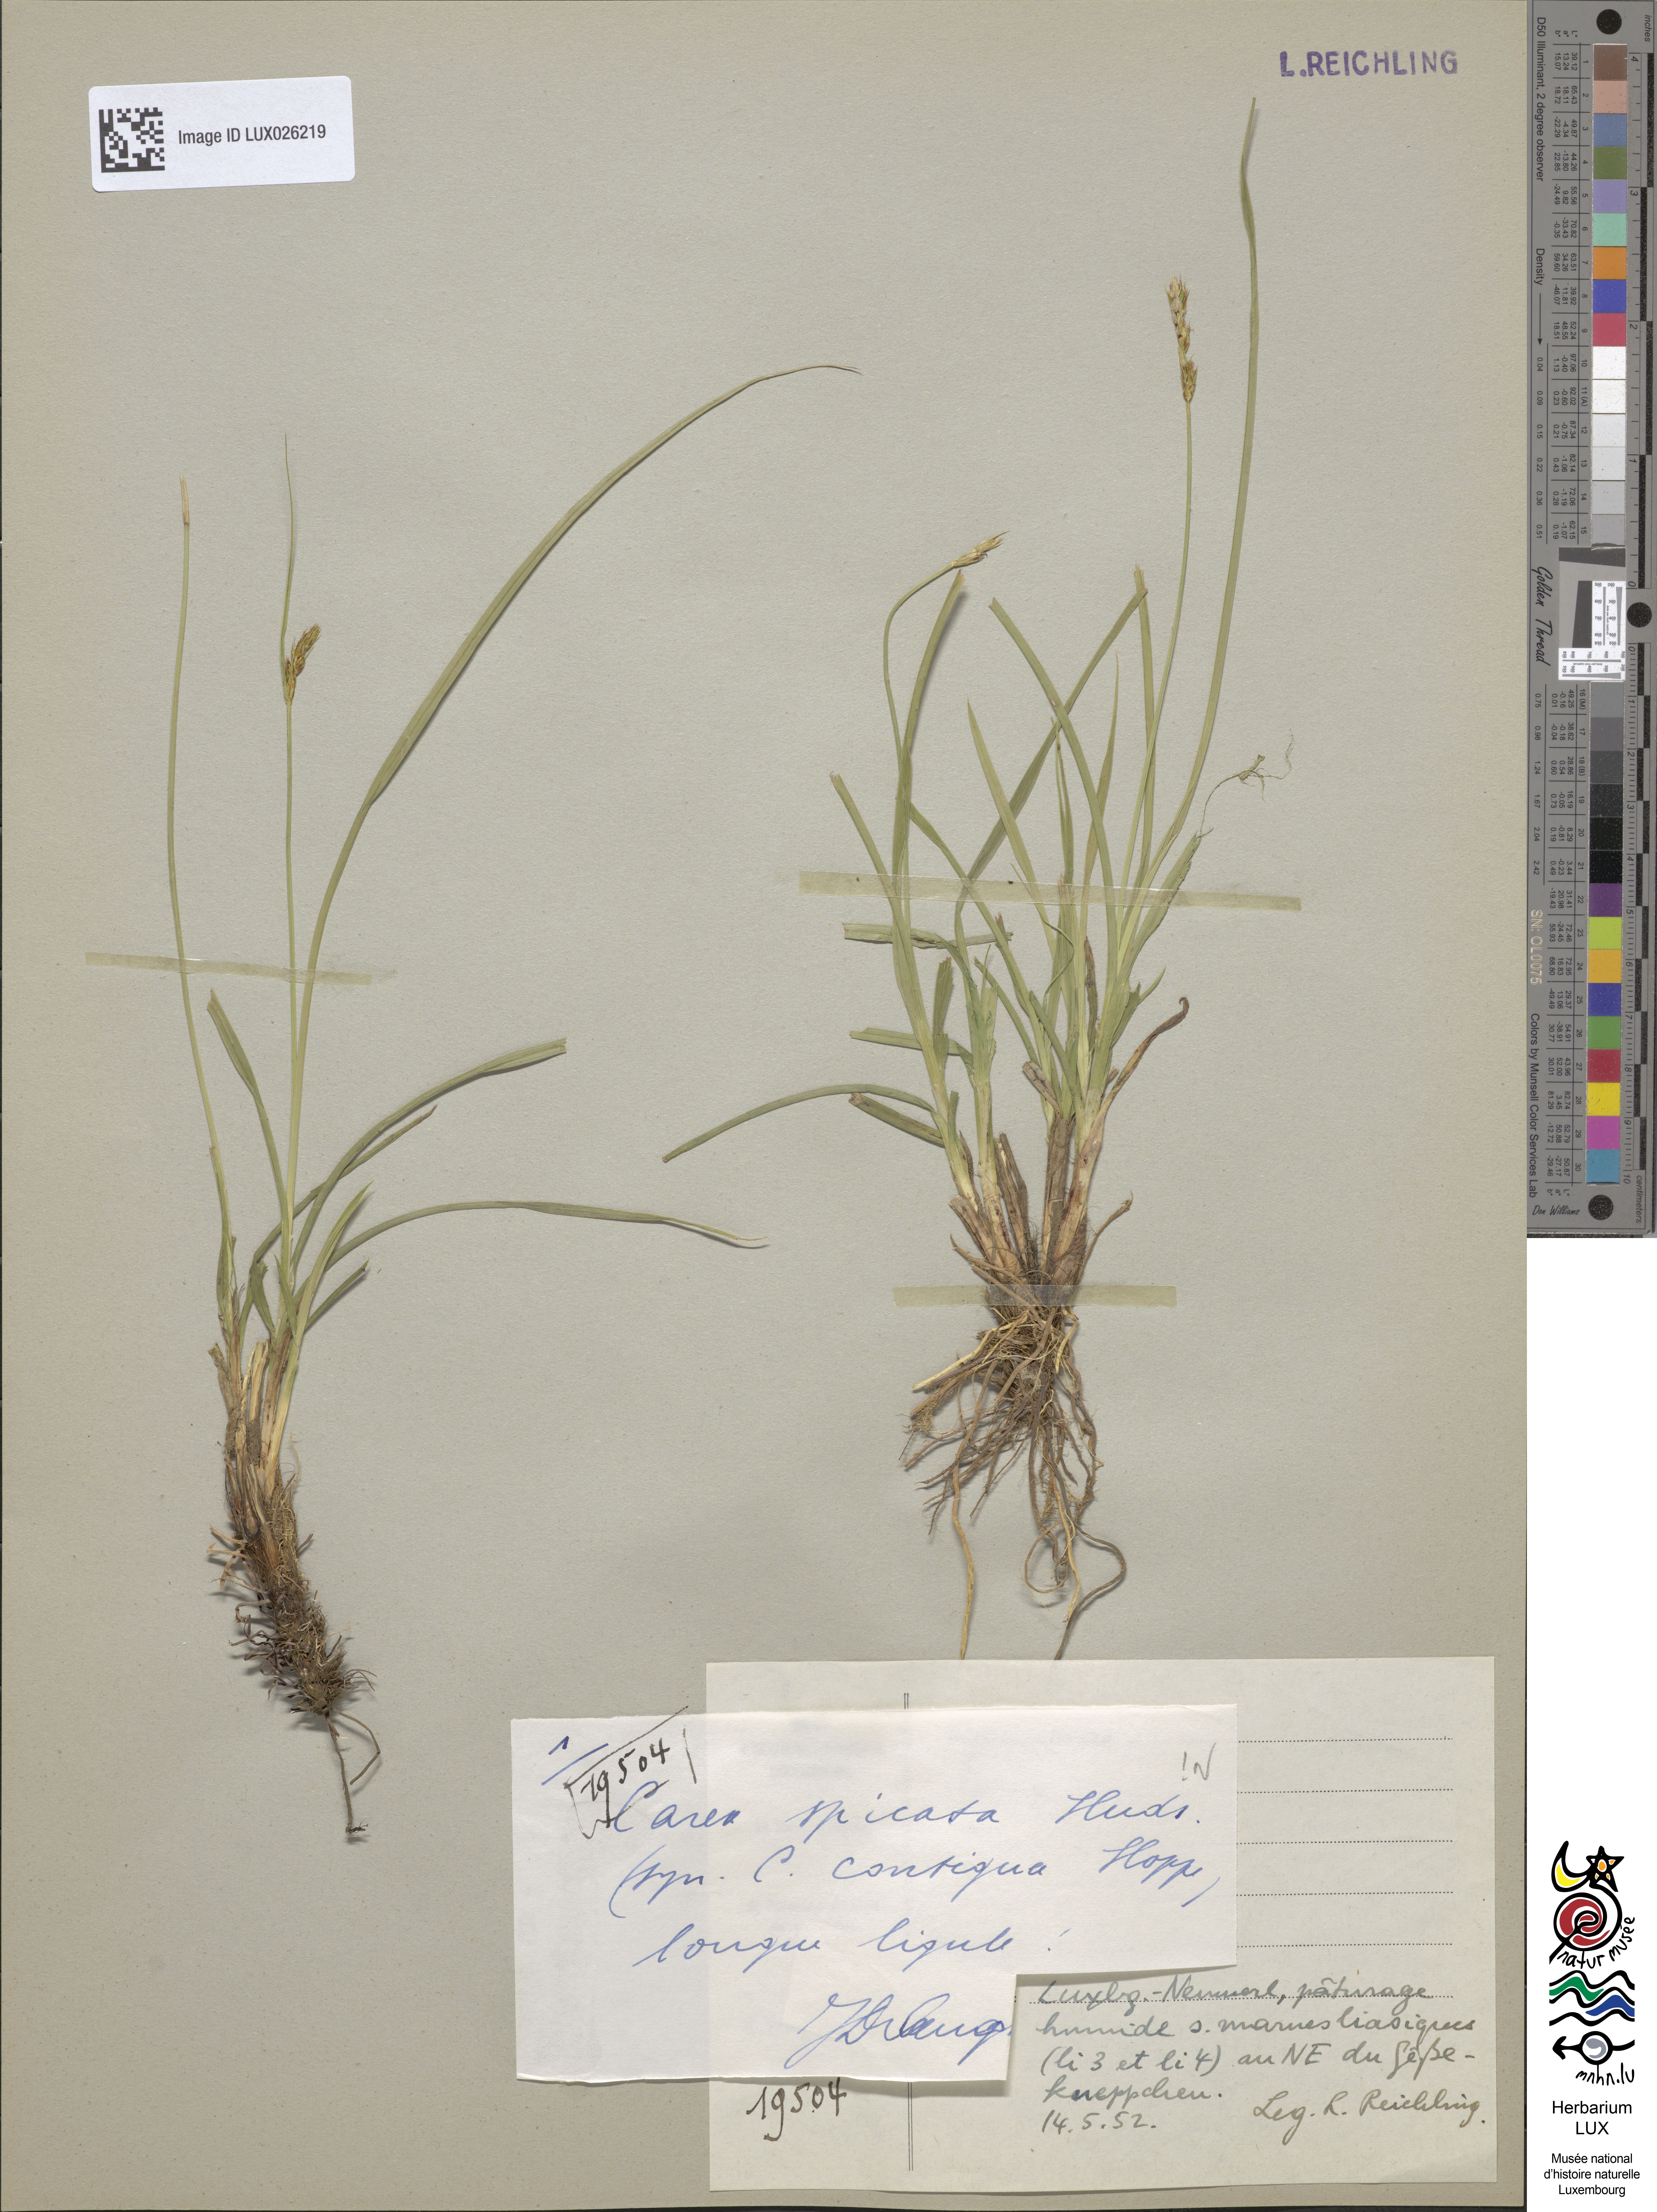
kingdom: Plantae
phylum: Tracheophyta
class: Liliopsida
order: Poales
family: Cyperaceae
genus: Carex
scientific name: Carex spicata
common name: Spiked sedge
